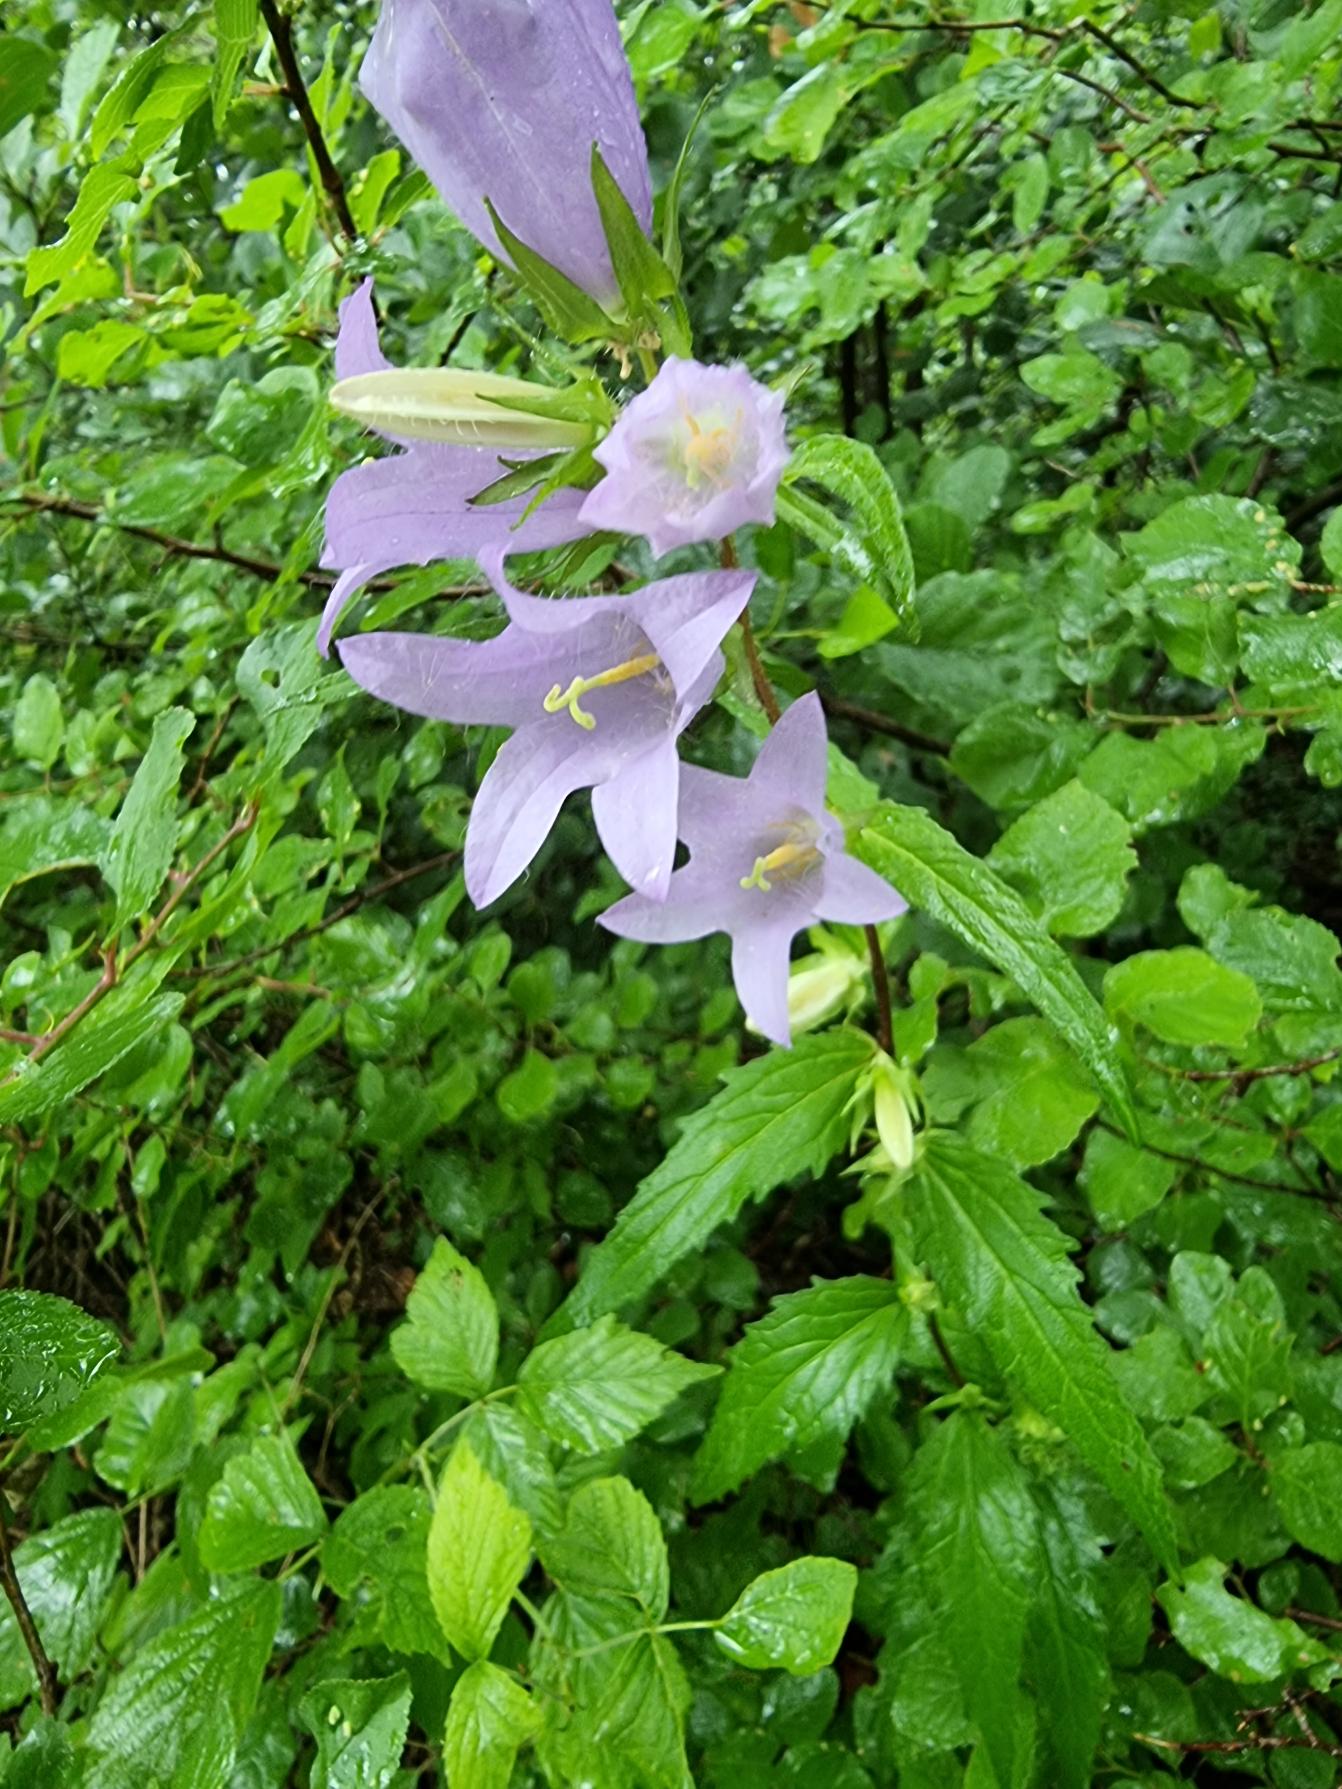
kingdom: Plantae
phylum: Tracheophyta
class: Magnoliopsida
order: Asterales
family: Campanulaceae
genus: Campanula
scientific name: Campanula trachelium
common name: Nælde-klokke
